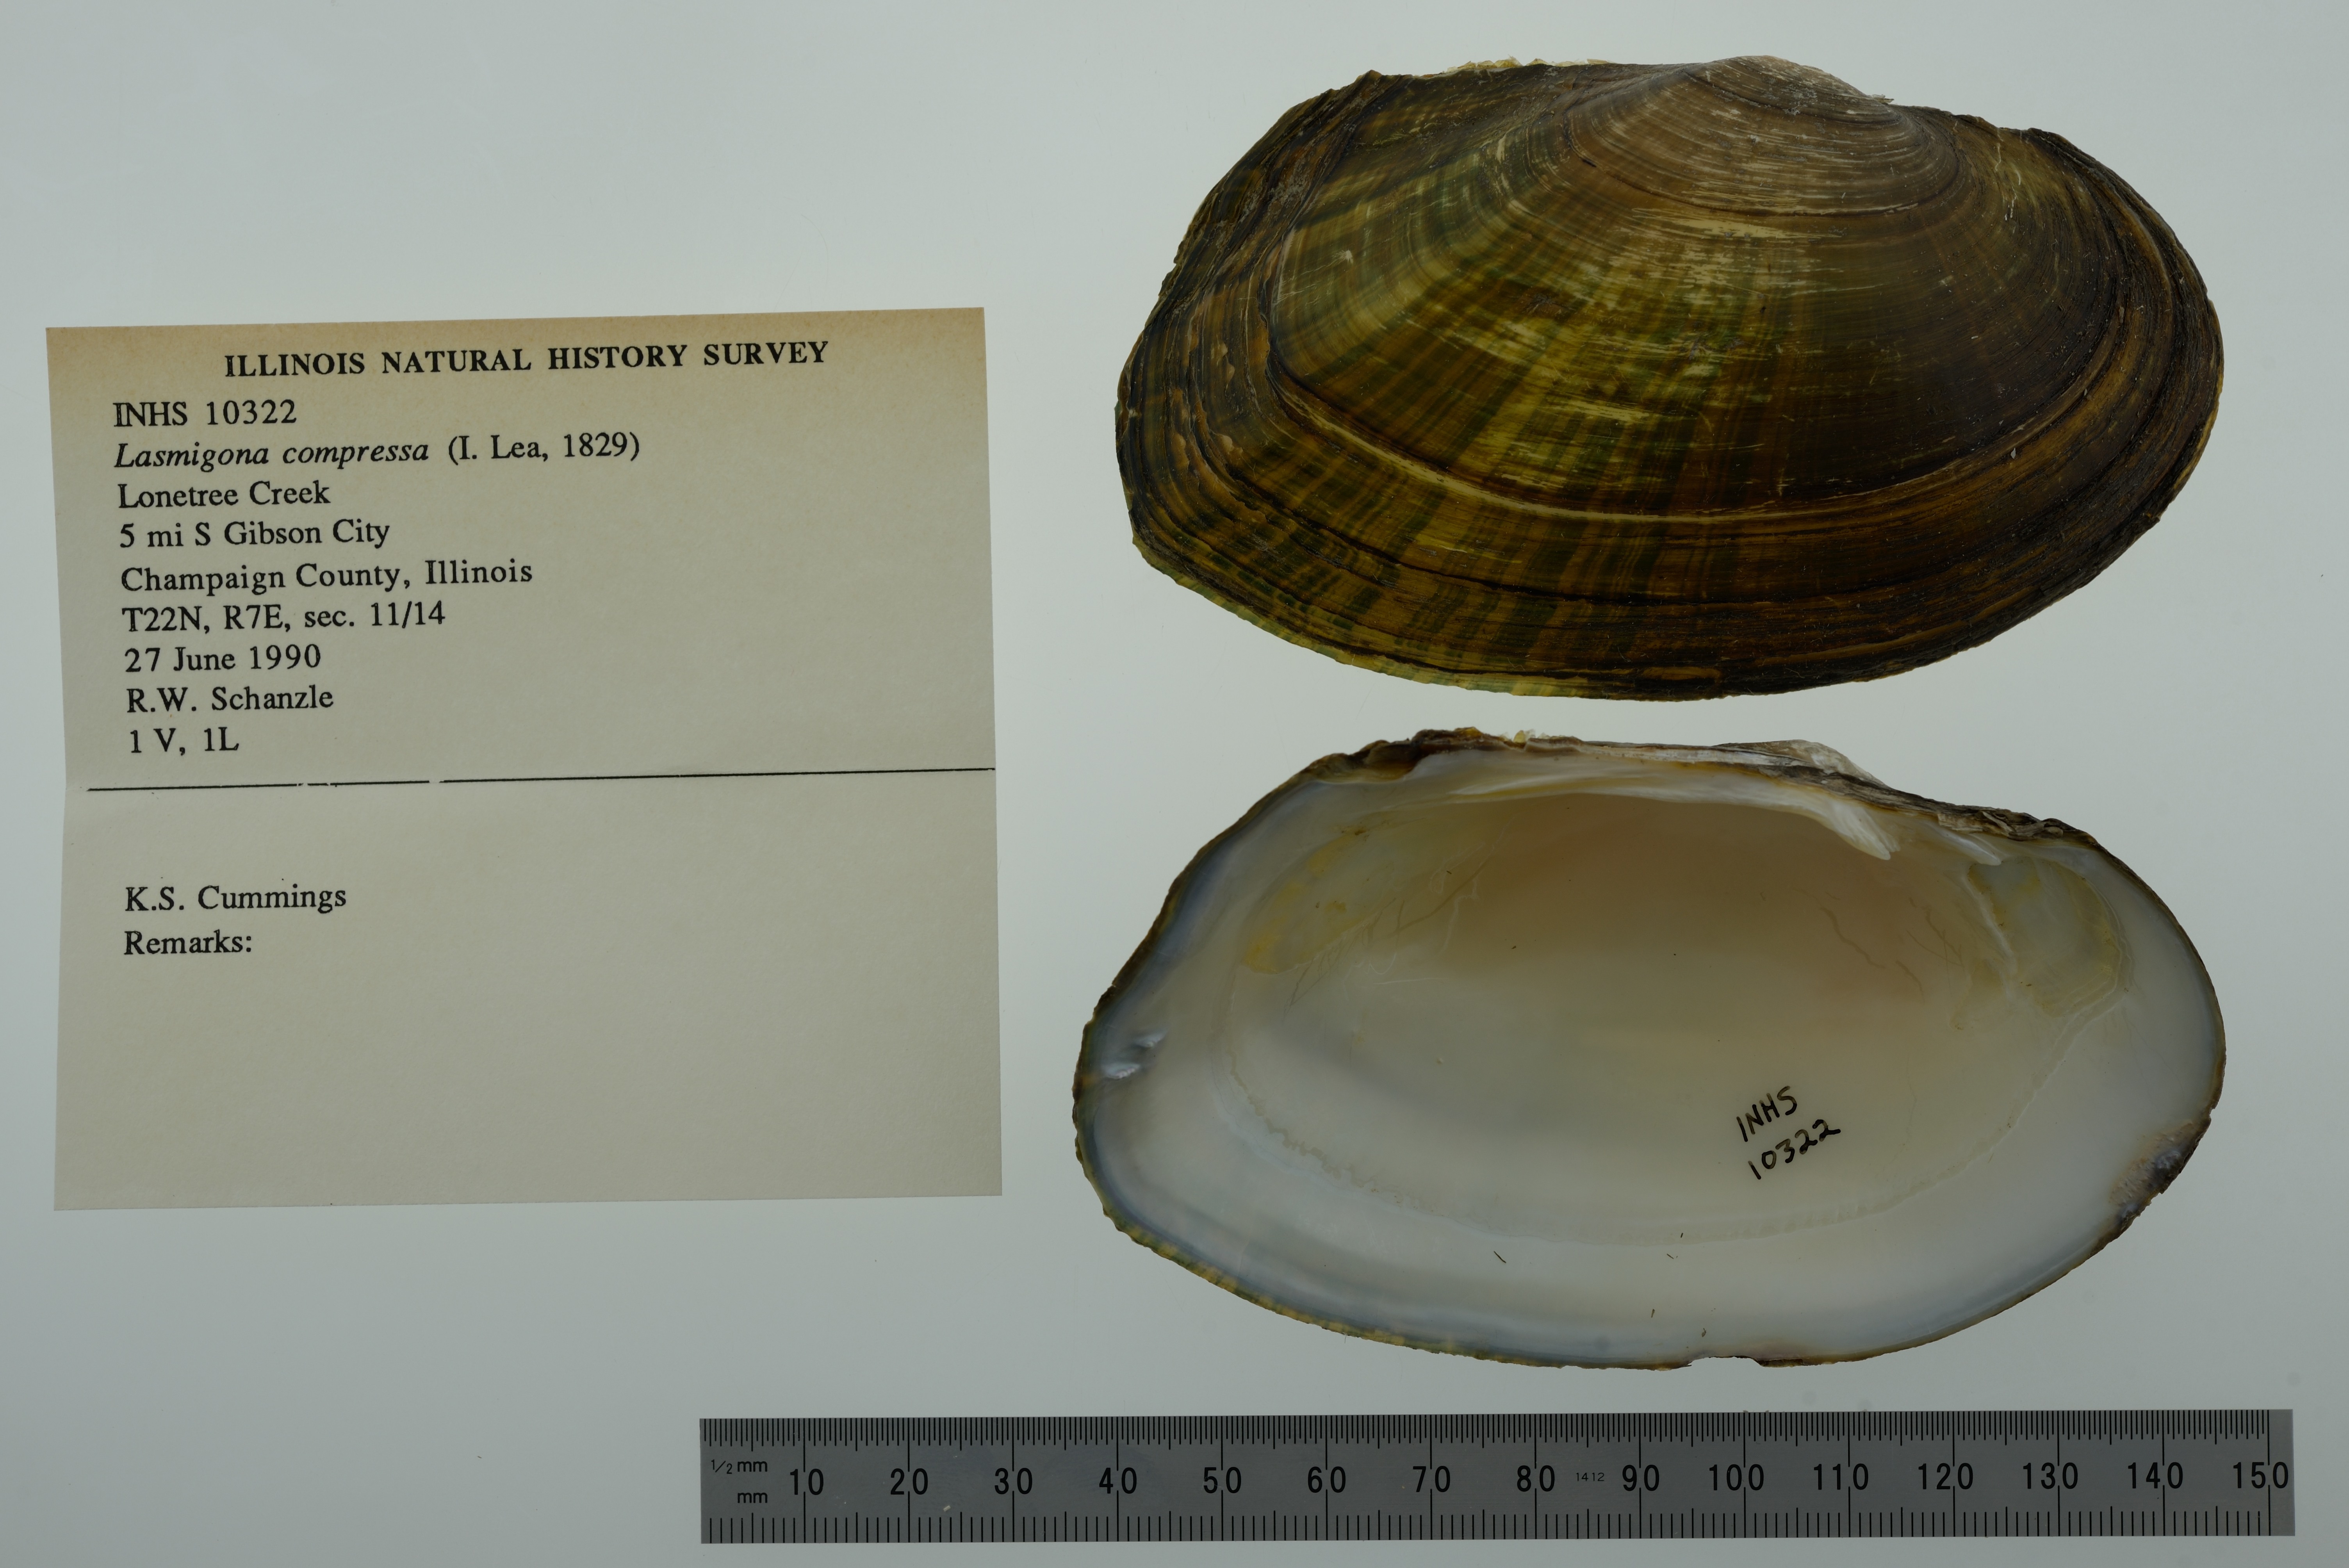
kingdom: Animalia
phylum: Mollusca
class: Bivalvia
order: Unionida
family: Unionidae
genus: Lasmigona
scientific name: Lasmigona compressa
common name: Creek heelsplitter
